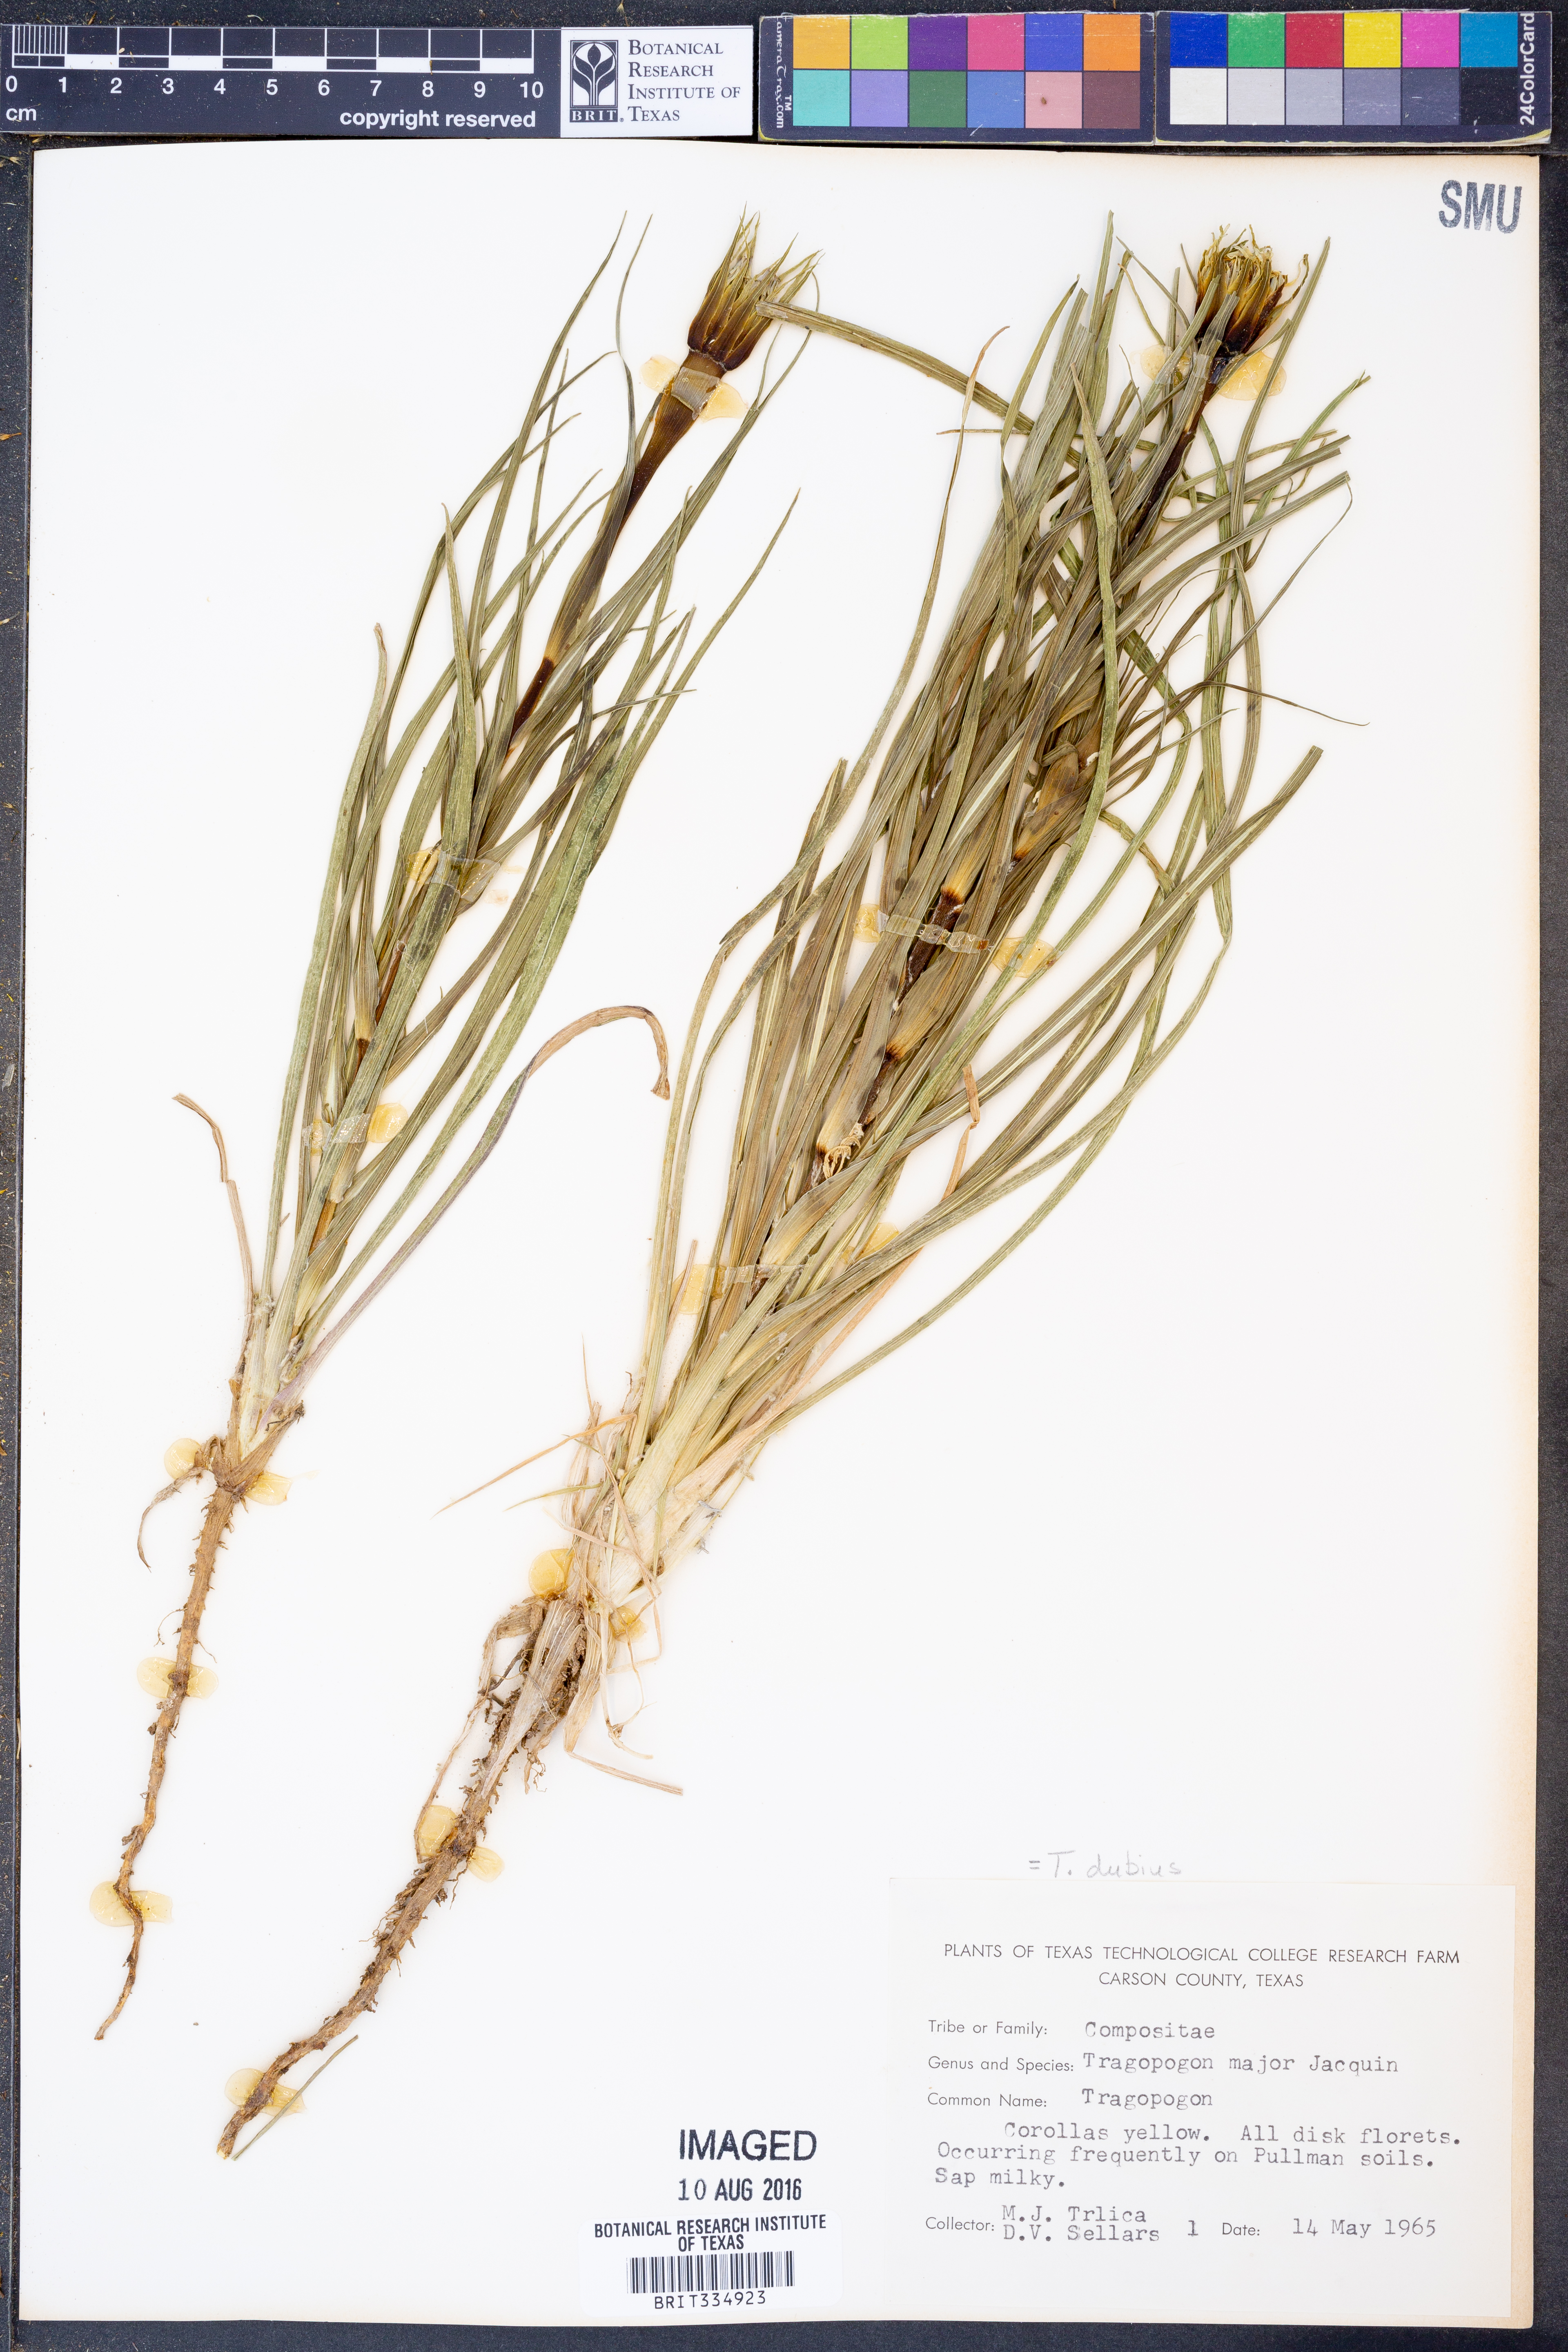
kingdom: Plantae
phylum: Tracheophyta
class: Magnoliopsida
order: Asterales
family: Asteraceae
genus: Tragopogon
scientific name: Tragopogon dubius
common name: Yellow salsify
